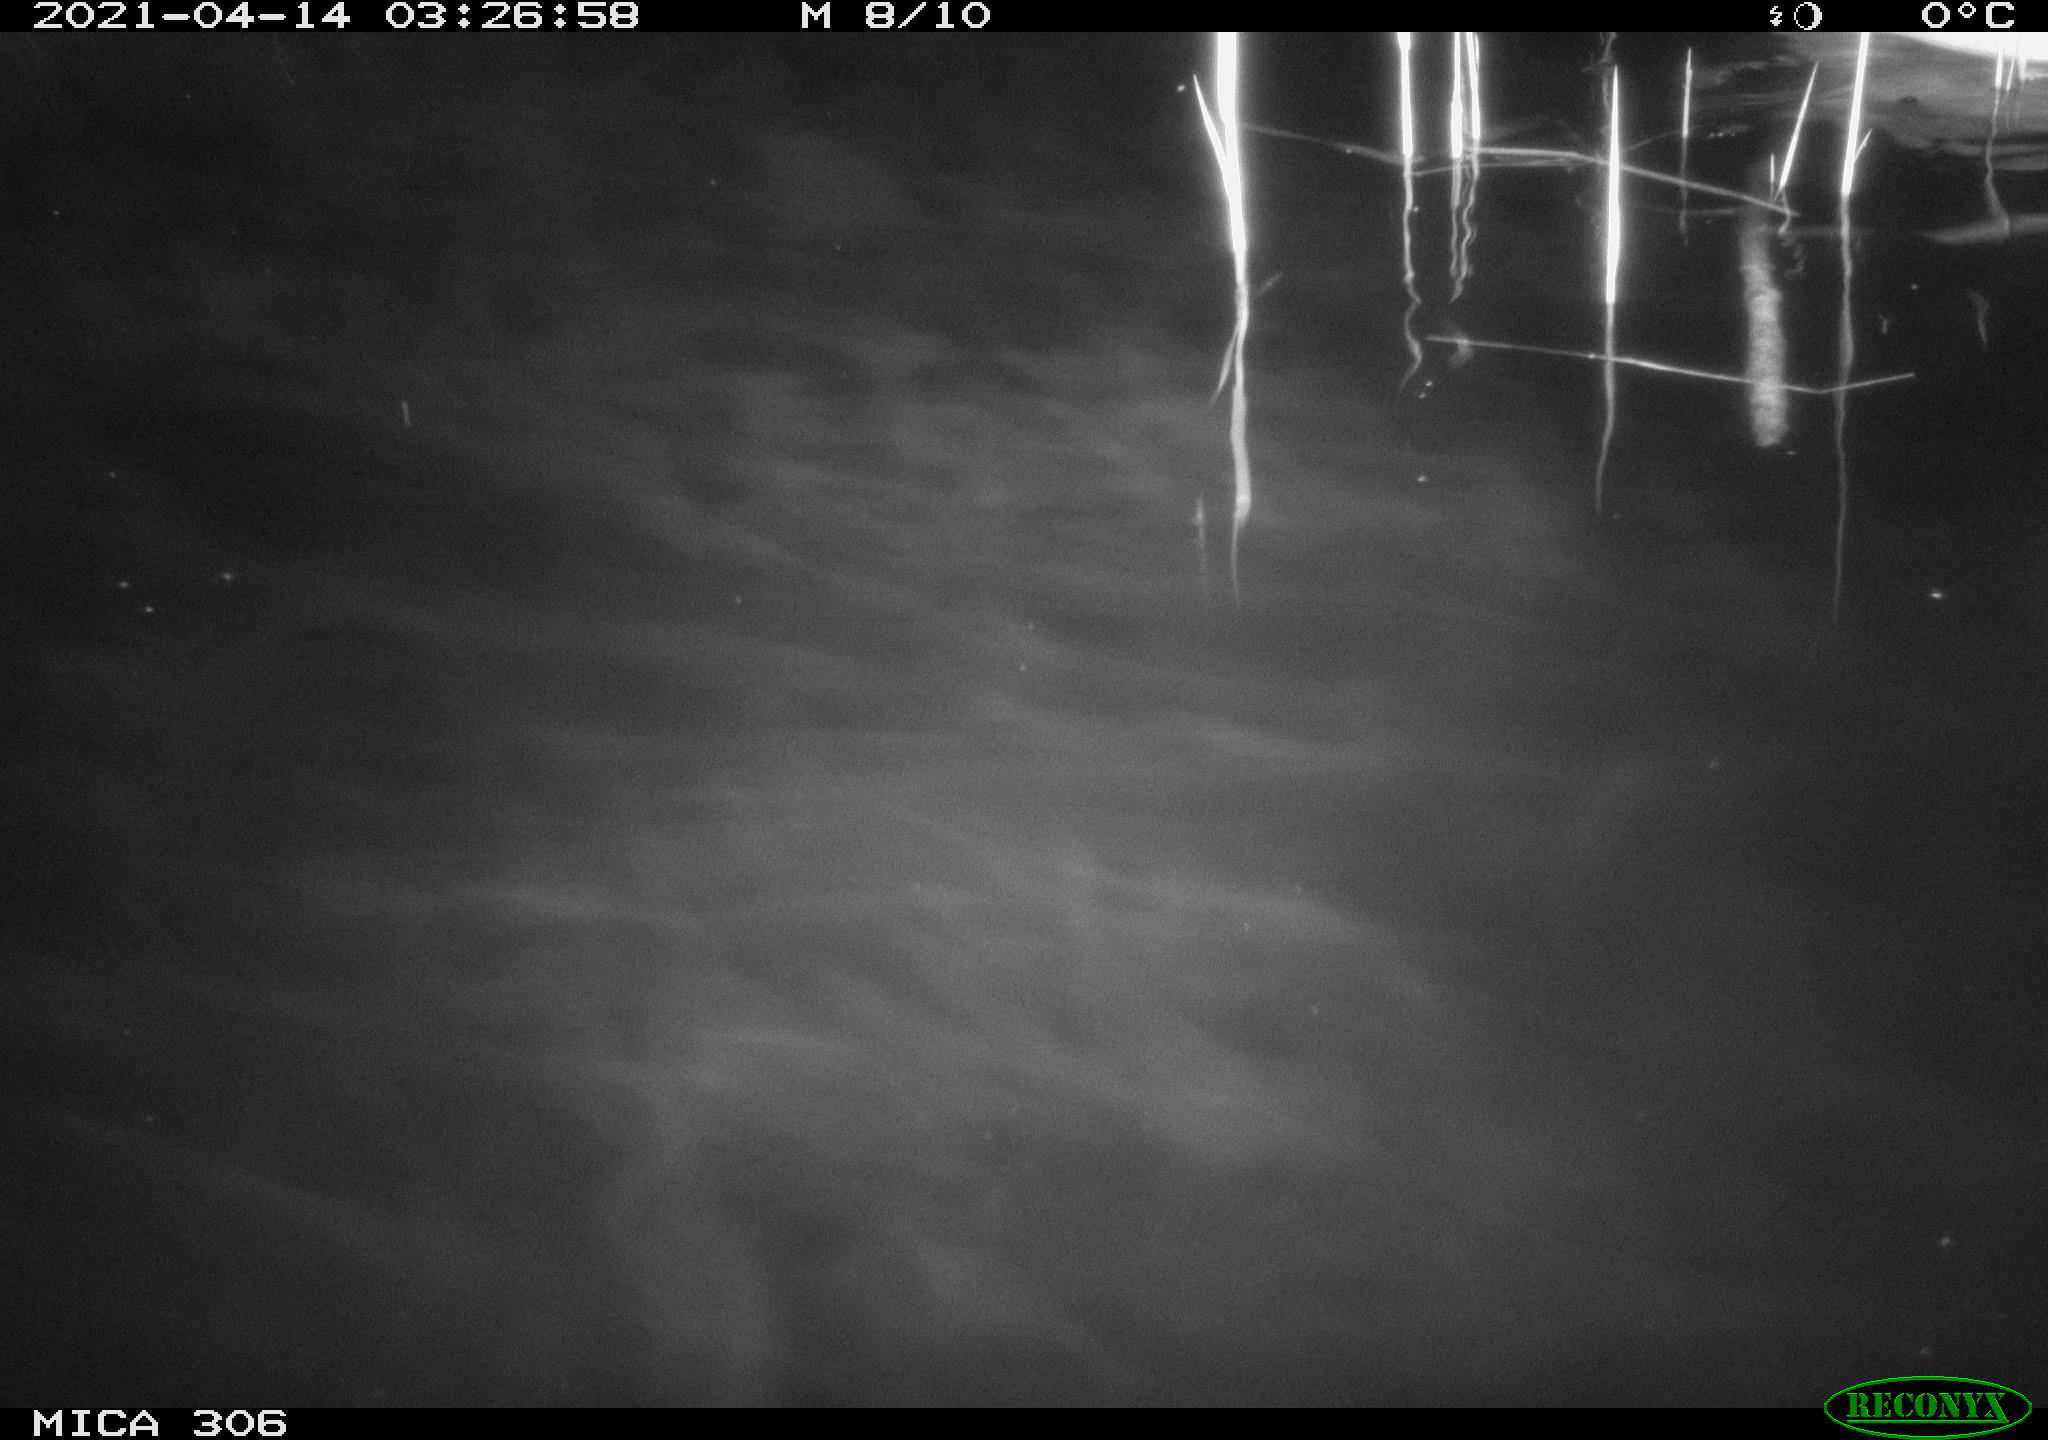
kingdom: Animalia
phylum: Chordata
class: Aves
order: Anseriformes
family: Anatidae
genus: Anas
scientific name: Anas
